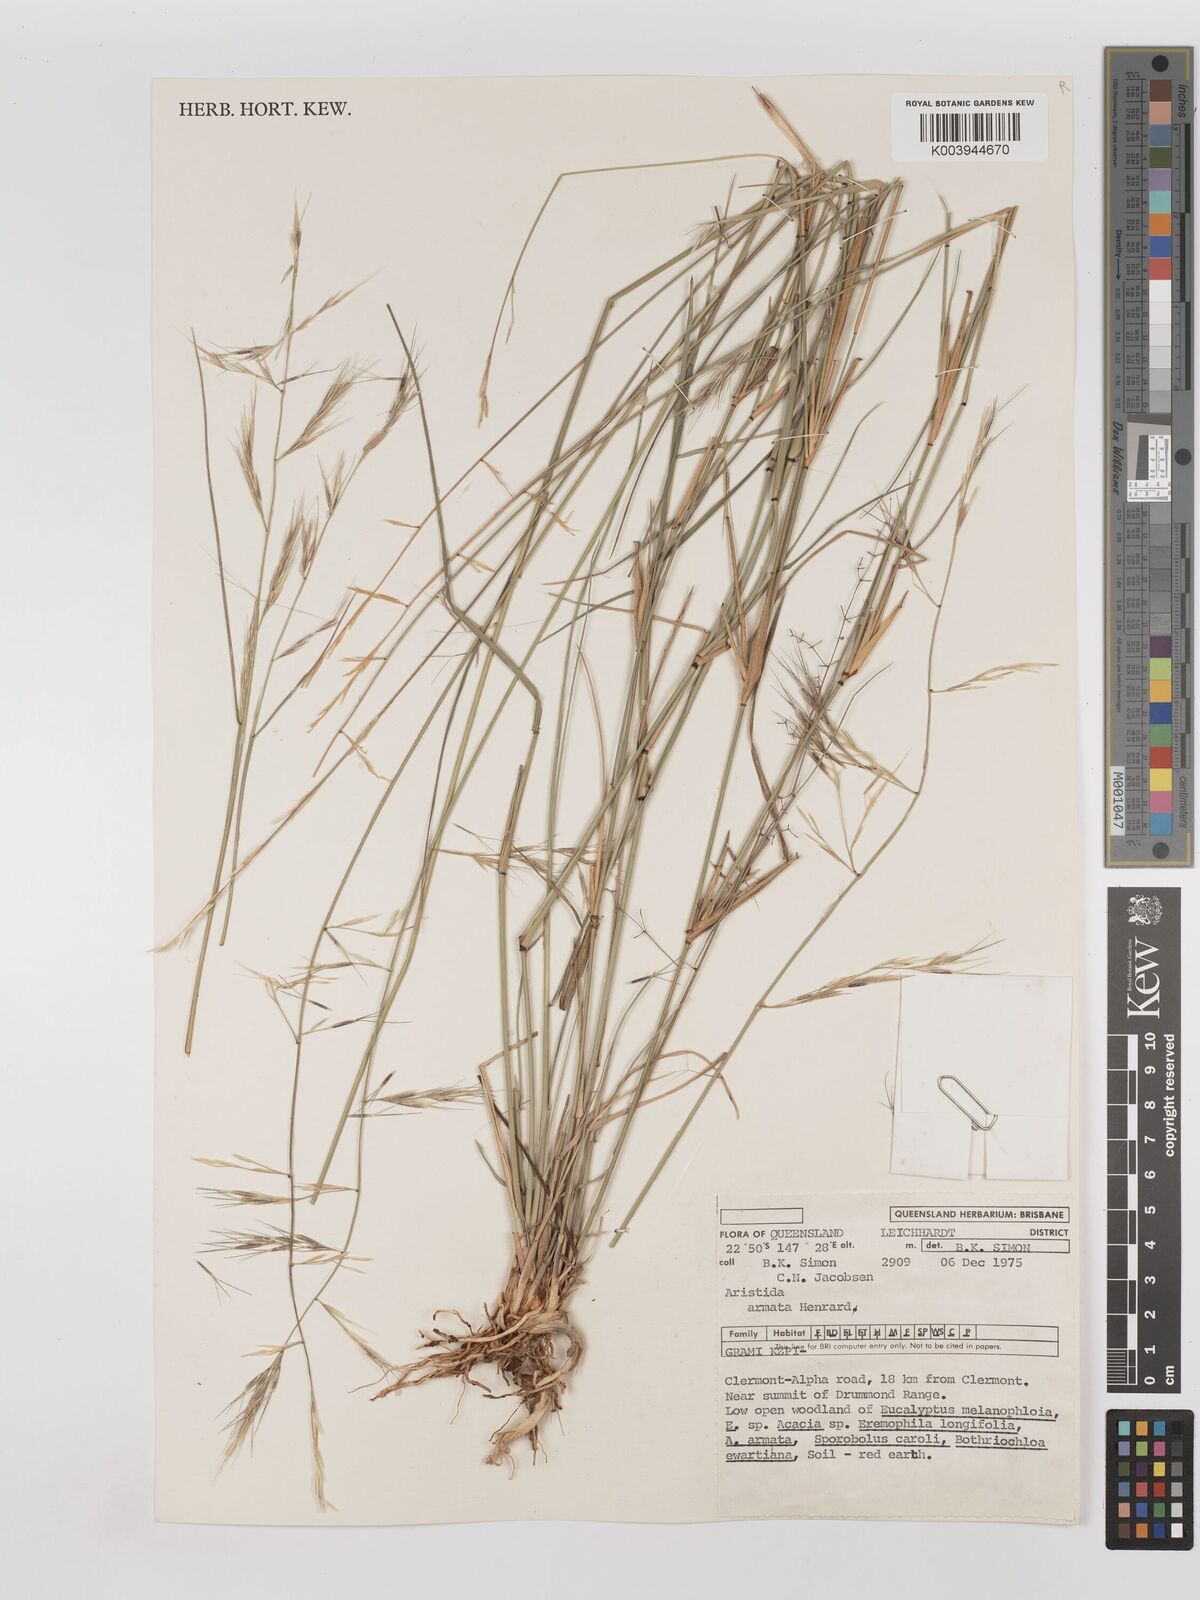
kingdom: Plantae
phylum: Tracheophyta
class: Liliopsida
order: Poales
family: Poaceae
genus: Aristida
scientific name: Aristida calycina
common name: Dark wire grass
